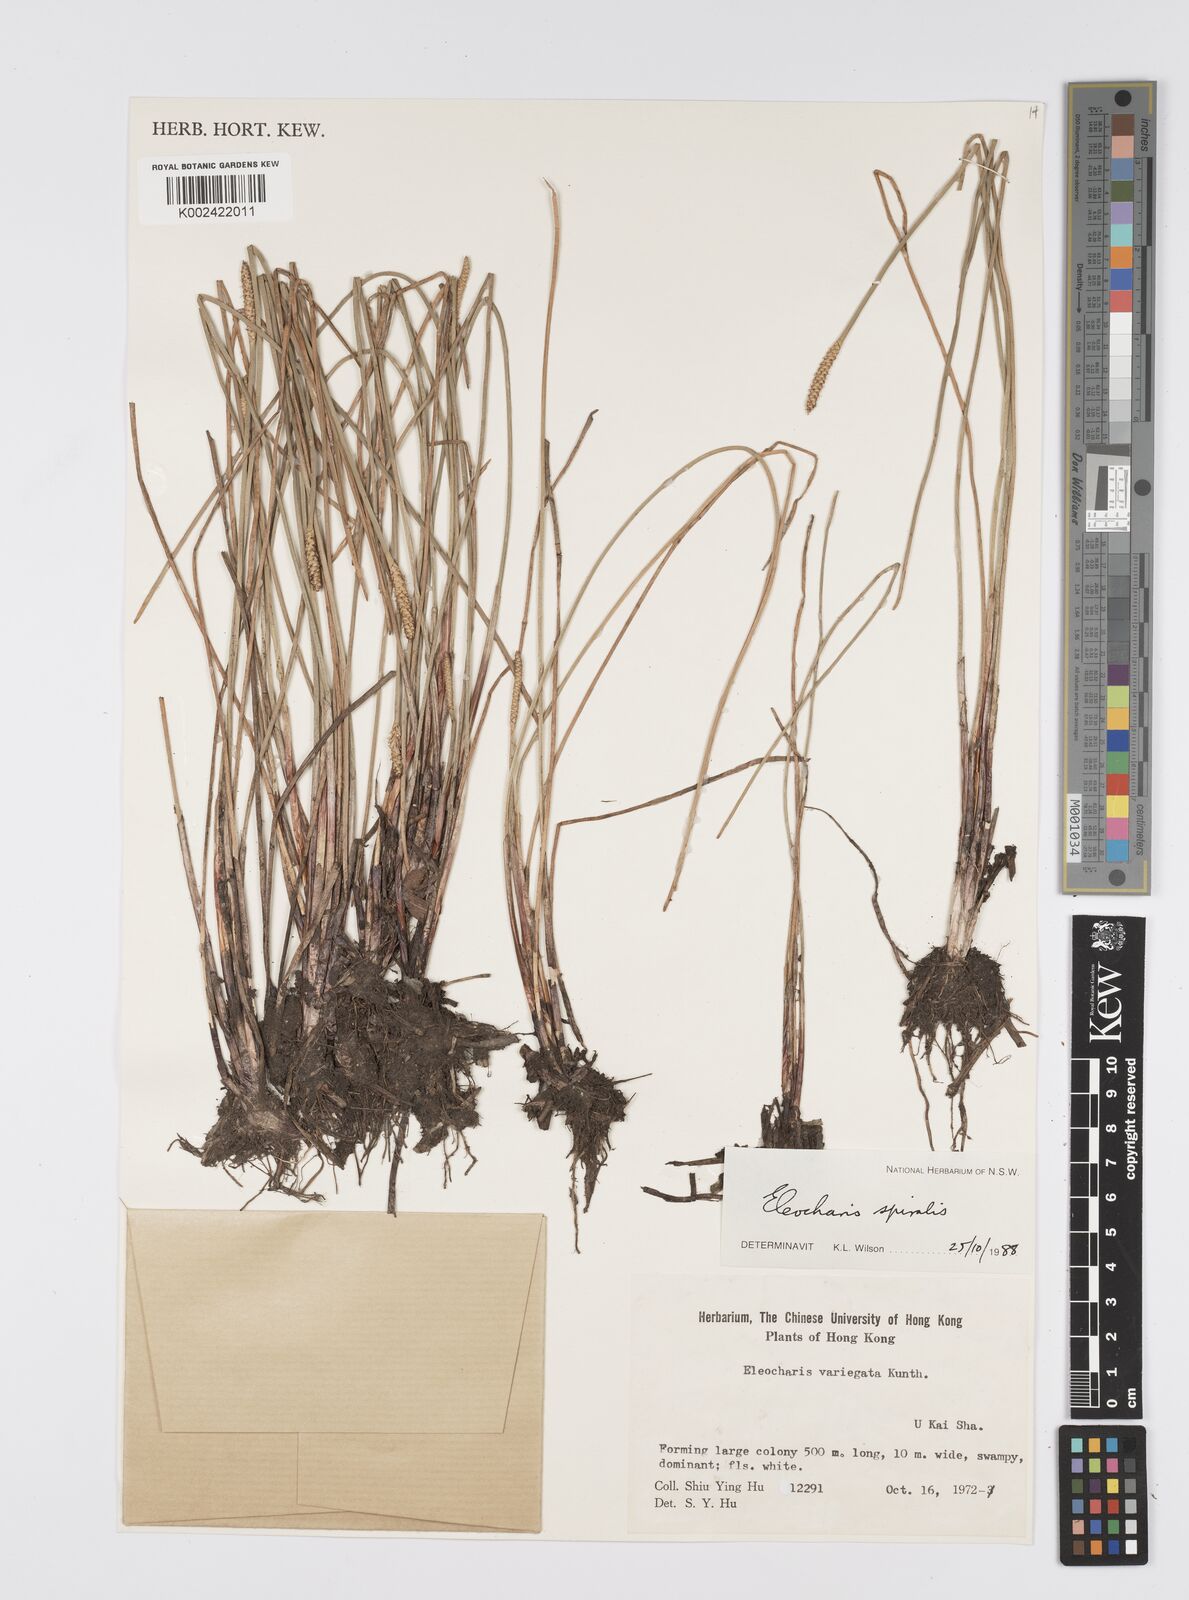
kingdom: Plantae
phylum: Tracheophyta
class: Liliopsida
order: Poales
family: Cyperaceae
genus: Eleocharis
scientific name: Eleocharis spiralis
